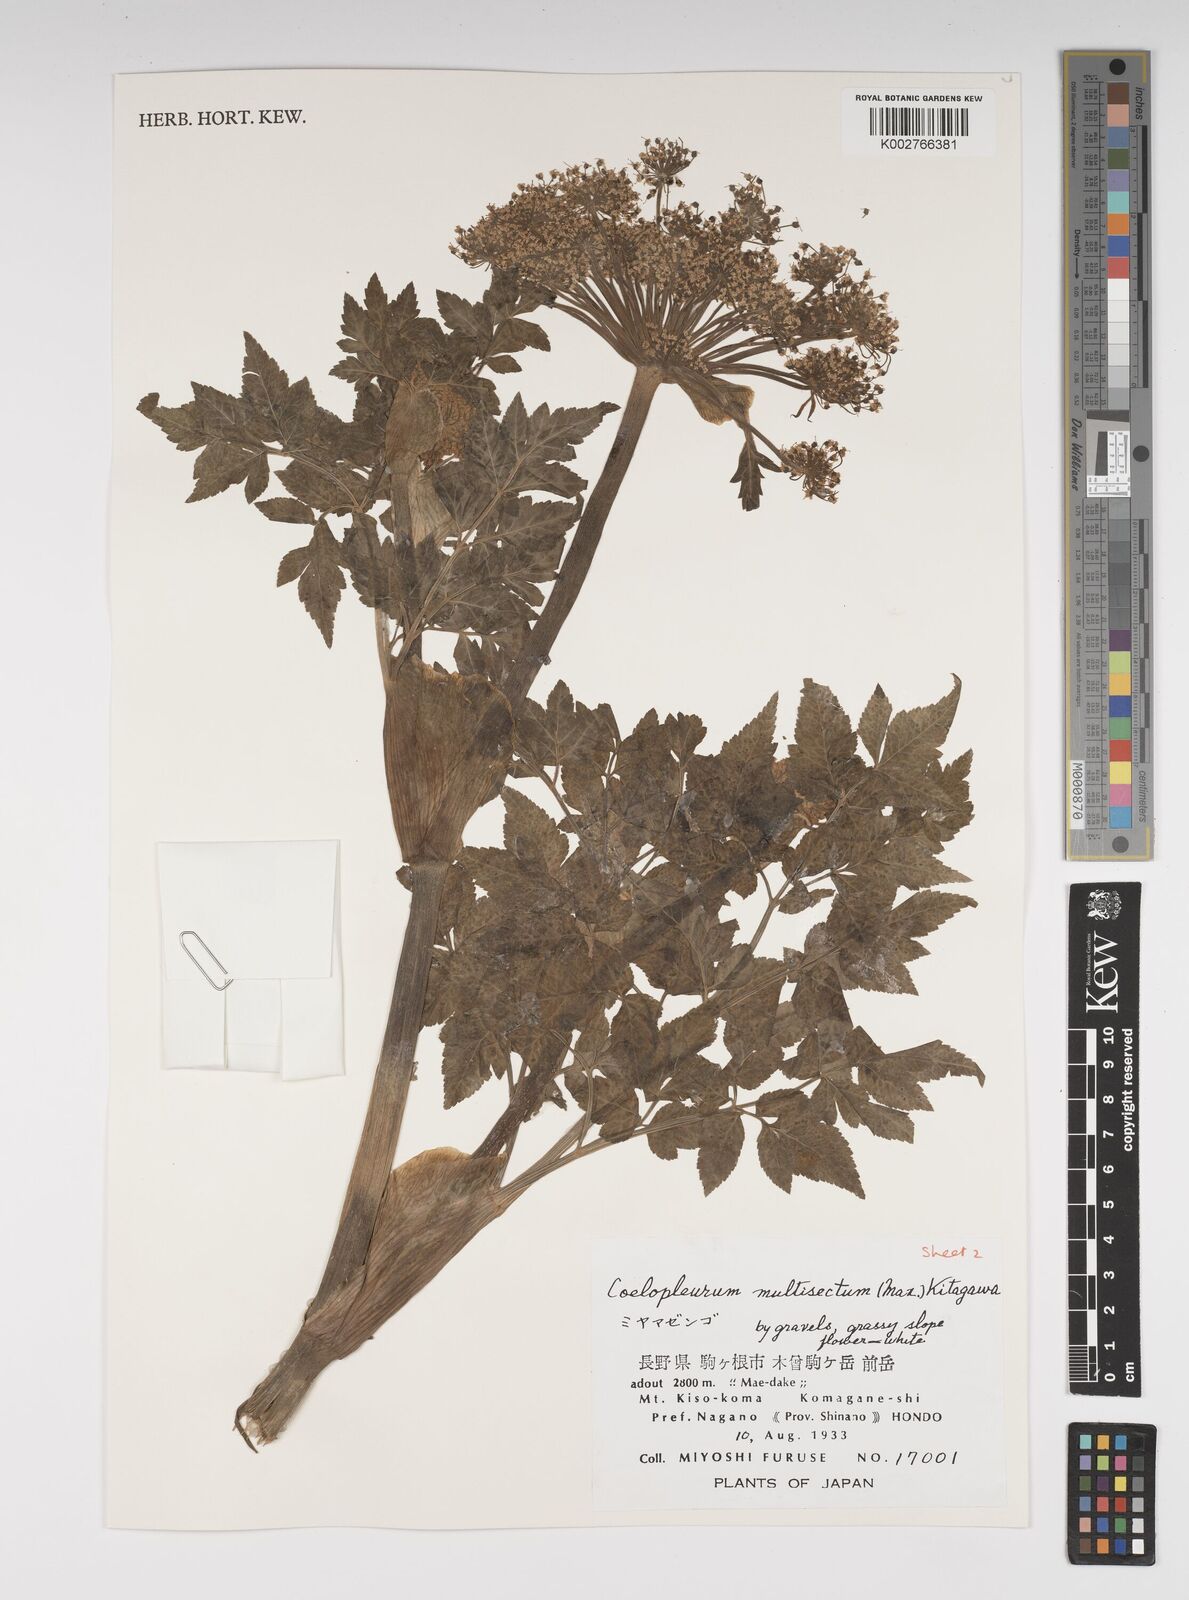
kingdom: Plantae
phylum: Tracheophyta
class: Magnoliopsida
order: Apiales
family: Apiaceae
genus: Angelica
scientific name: Angelica
